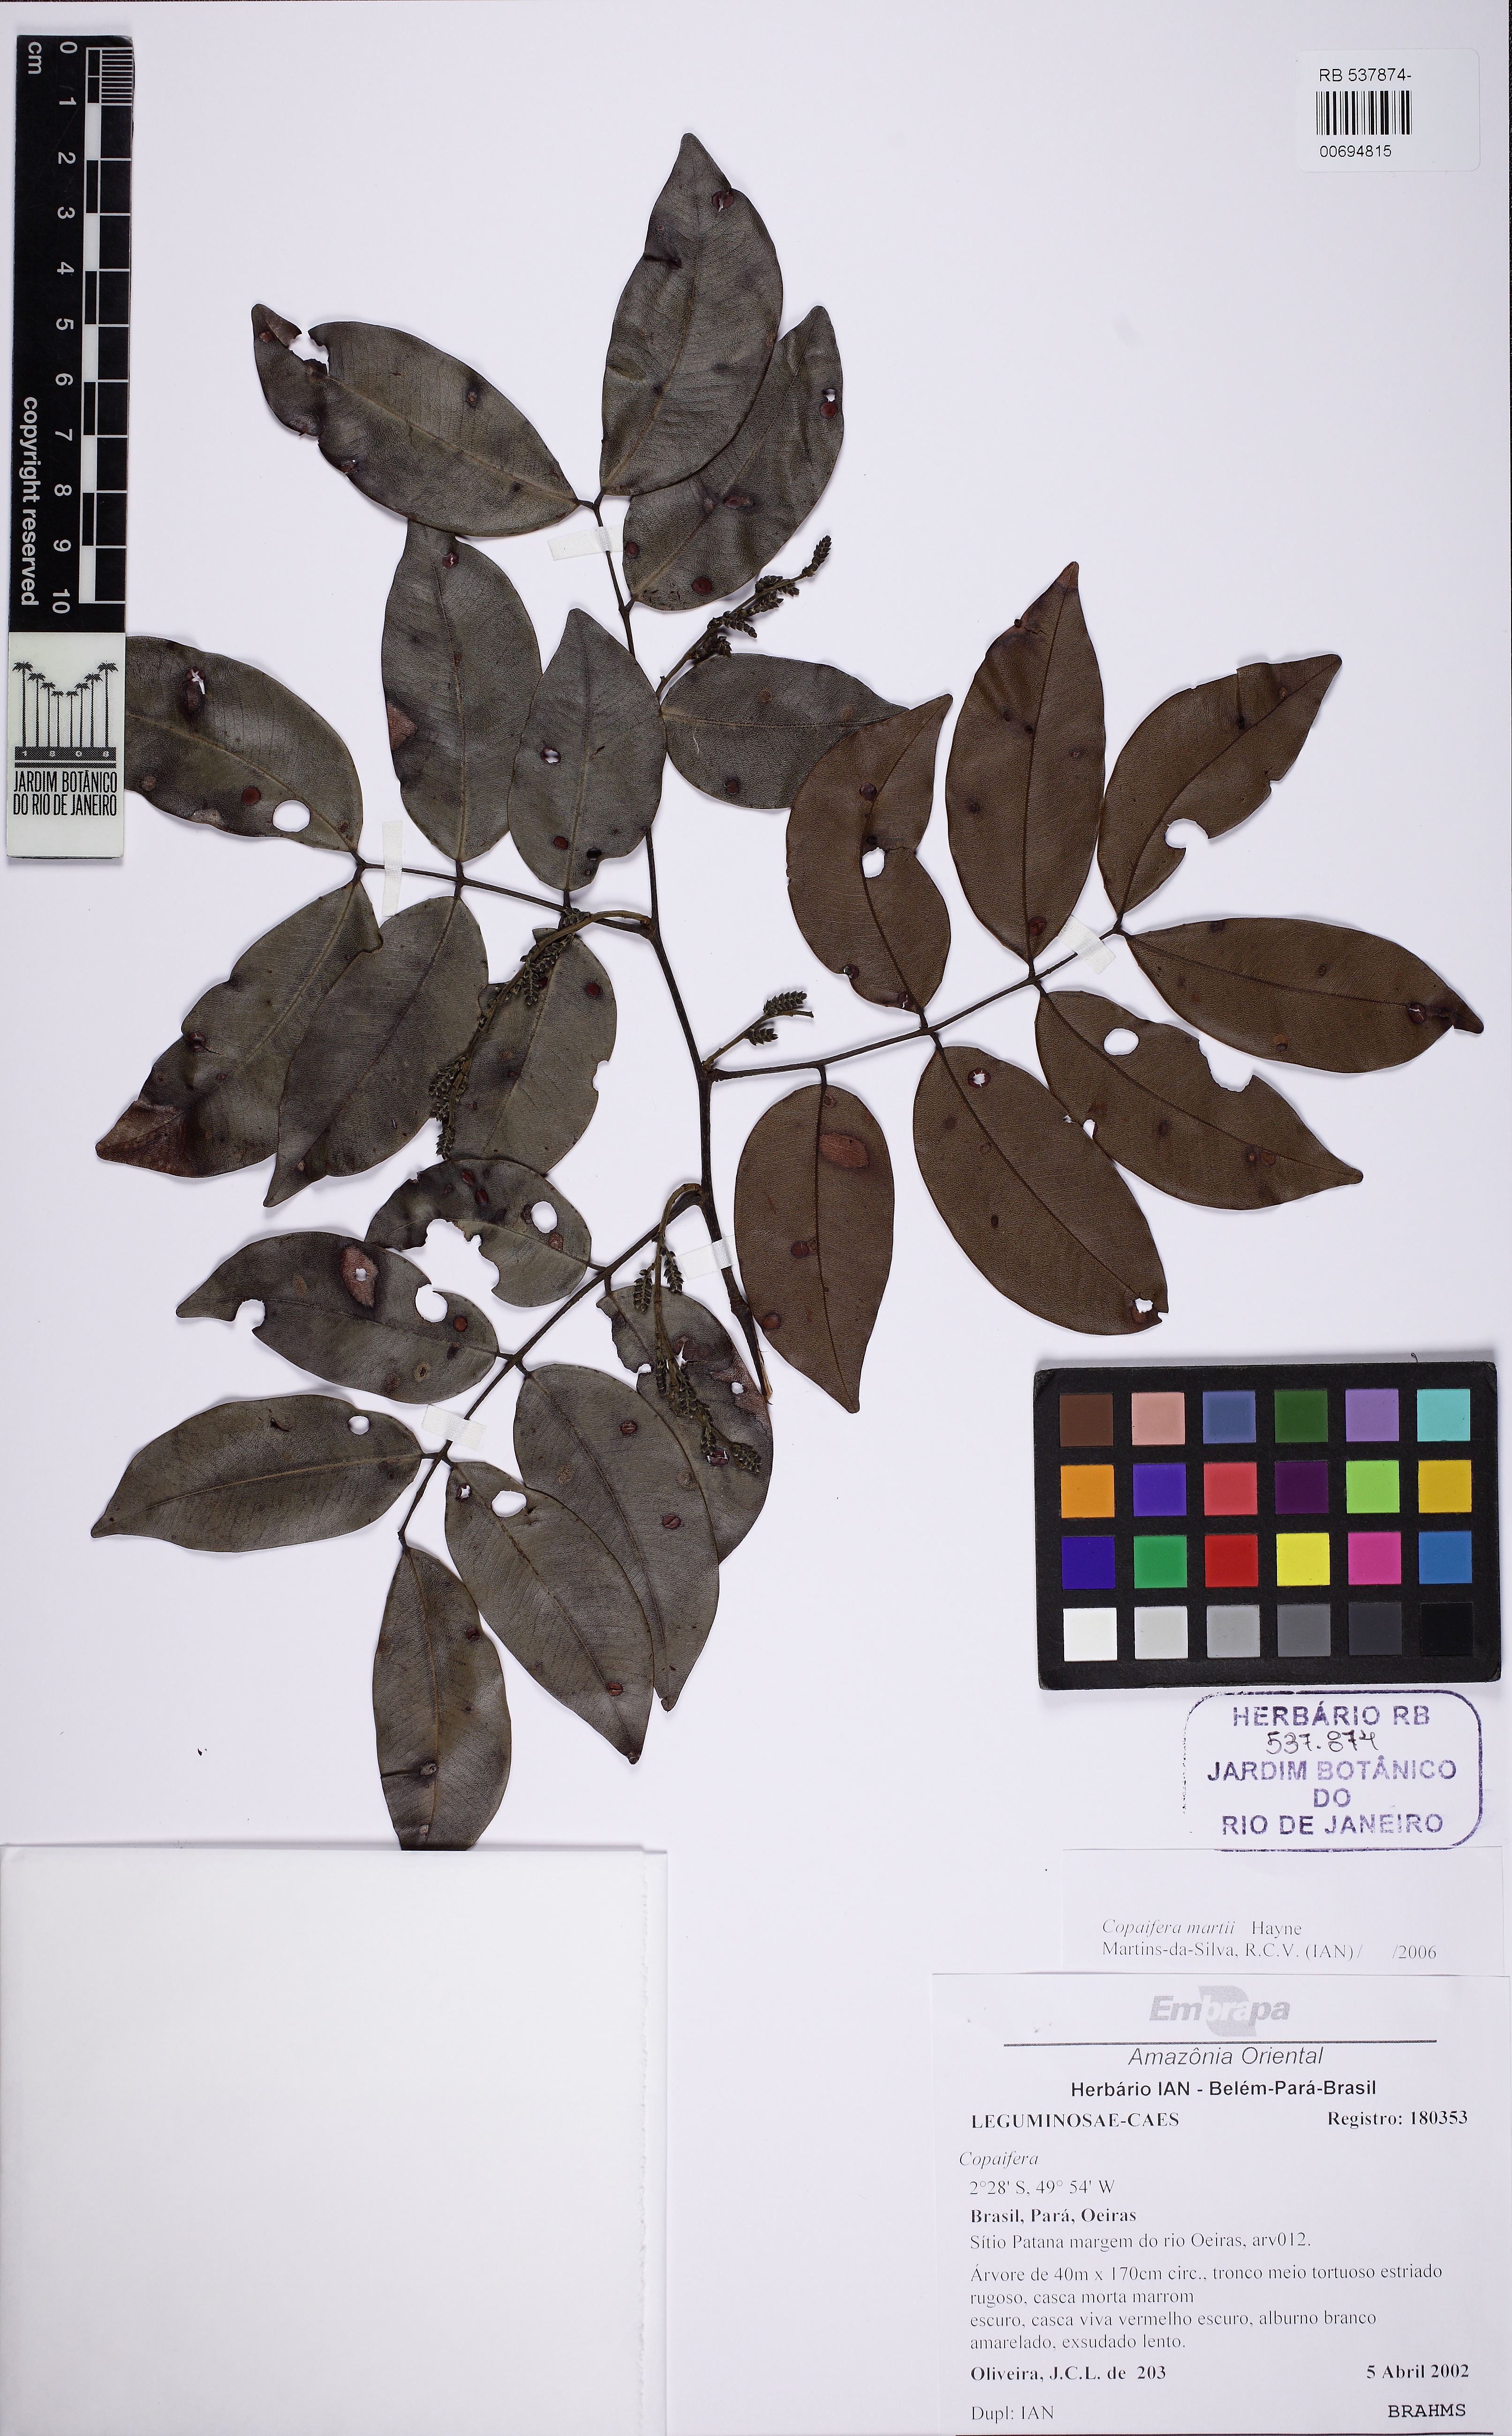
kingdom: Plantae
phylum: Tracheophyta
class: Magnoliopsida
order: Fabales
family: Fabaceae
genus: Copaifera
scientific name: Copaifera martii
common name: Copaiba
